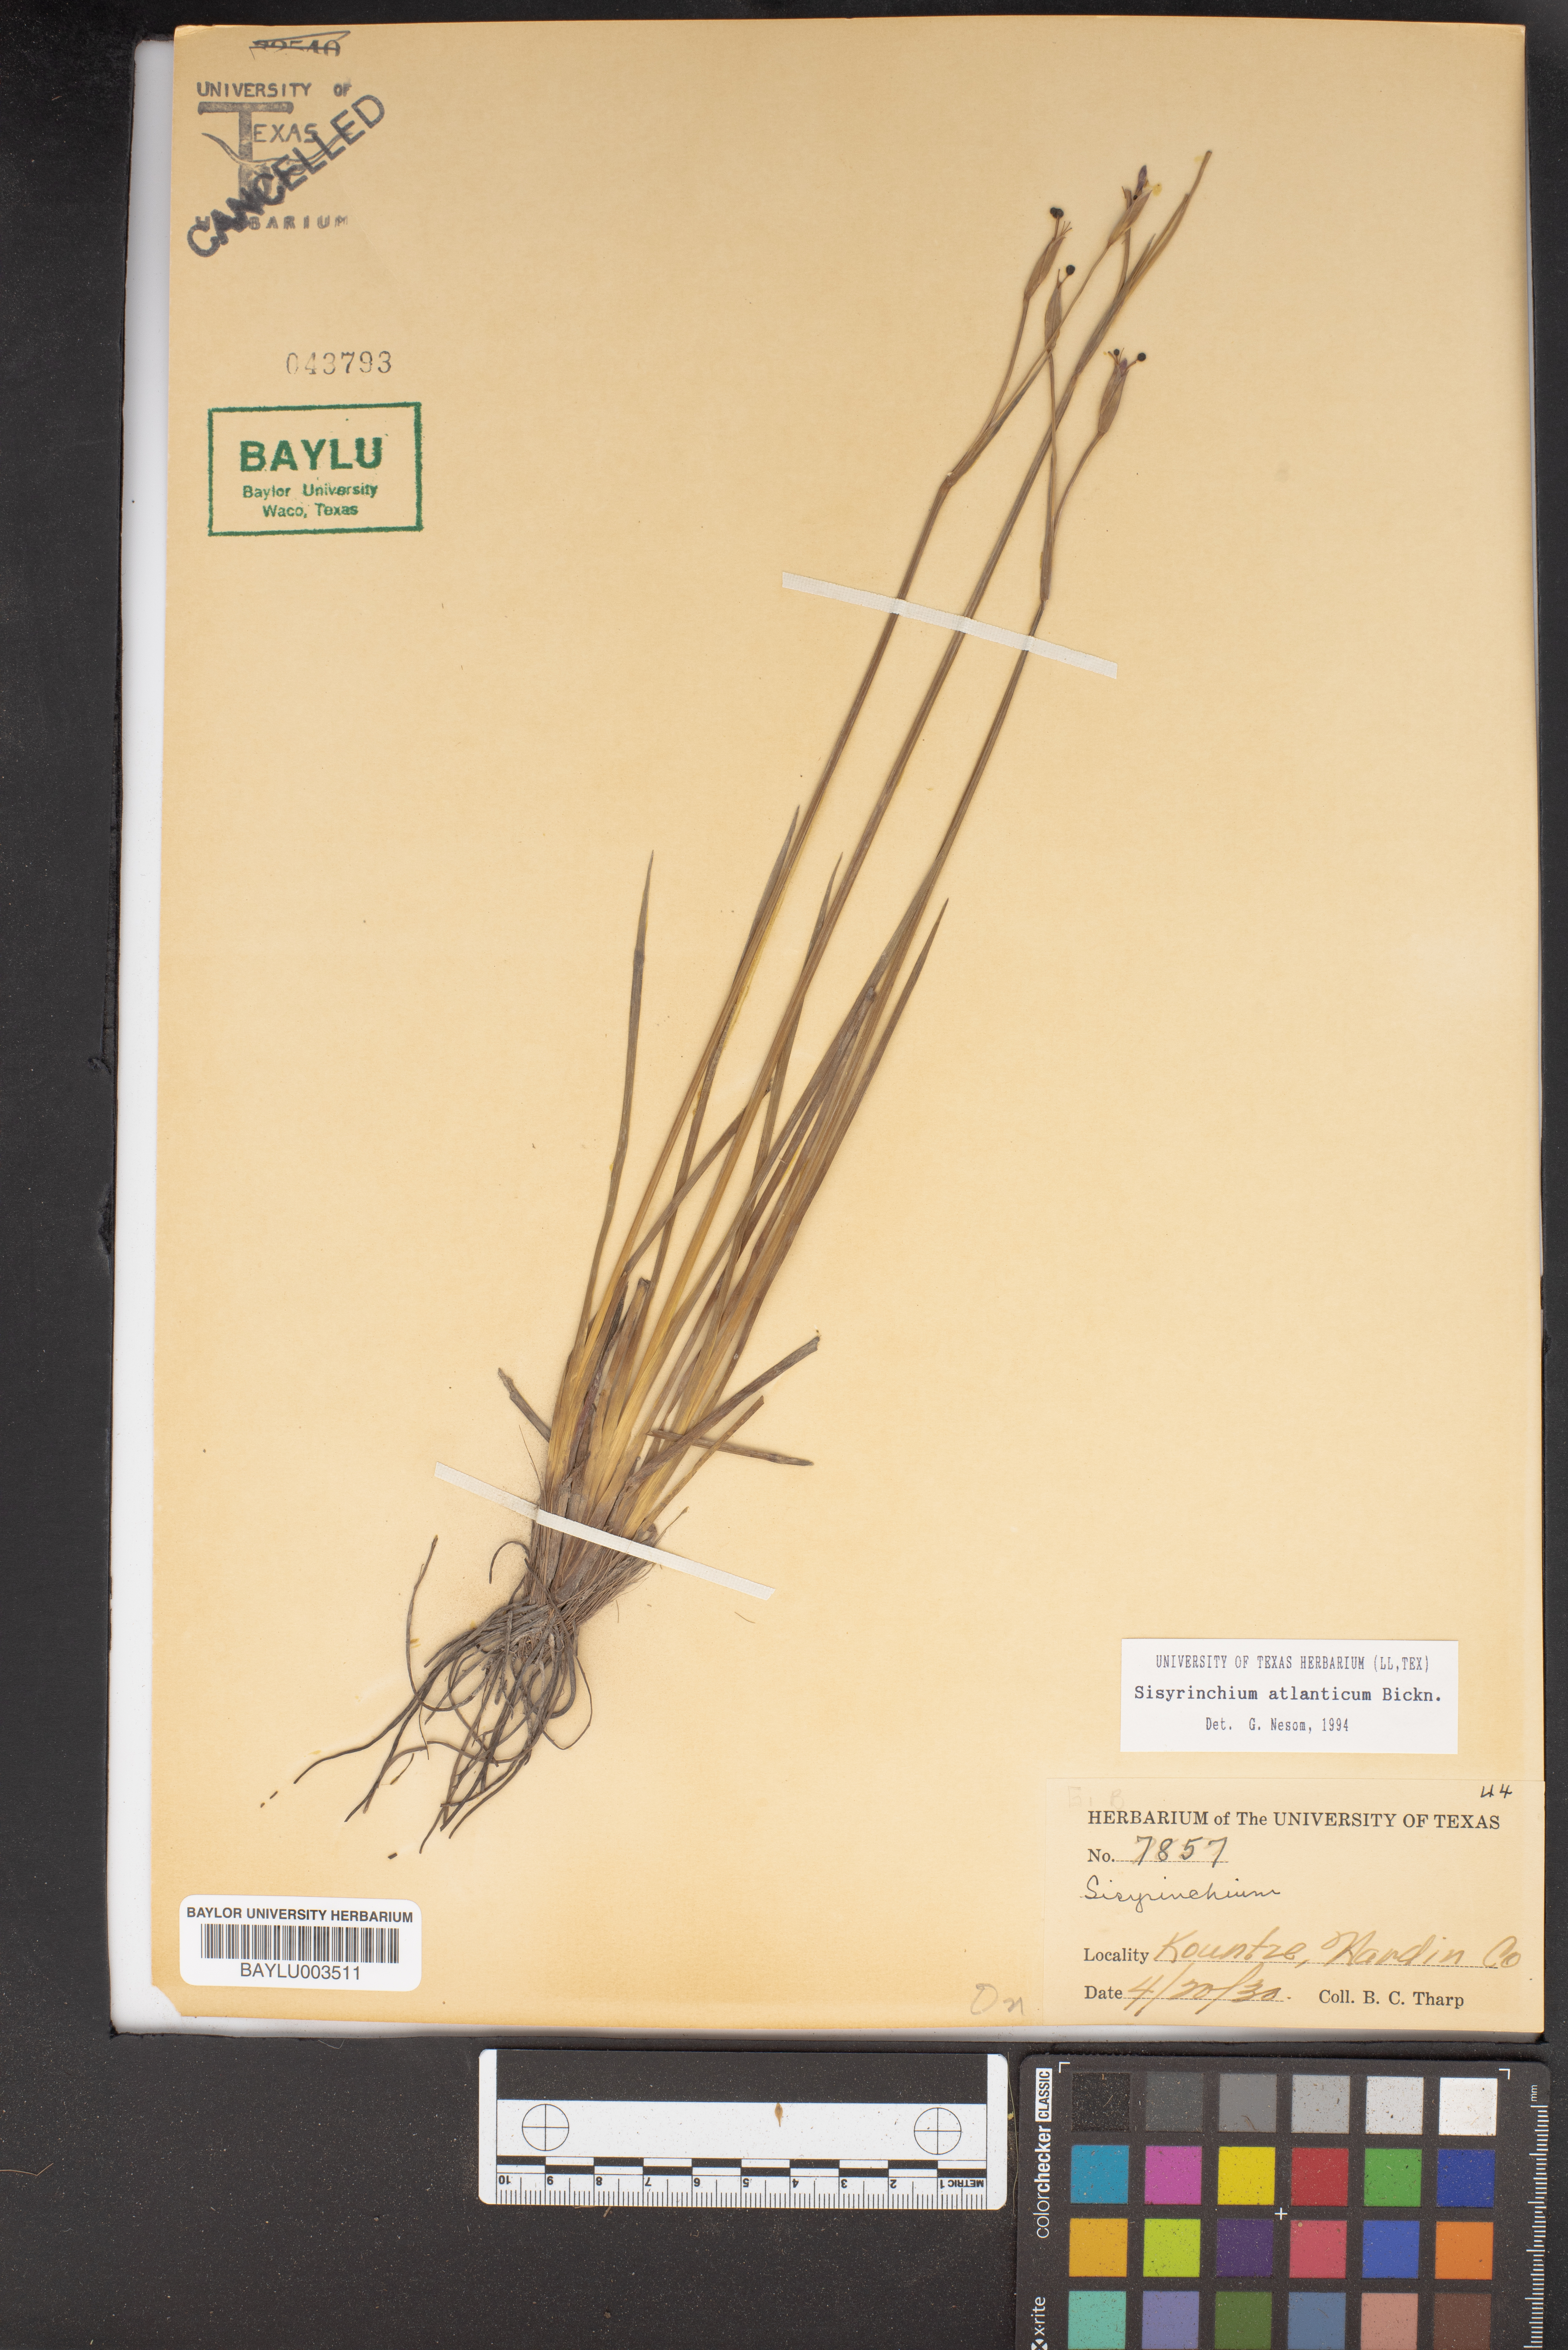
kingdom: Plantae
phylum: Tracheophyta
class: Liliopsida
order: Asparagales
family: Iridaceae
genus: Sisyrinchium
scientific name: Sisyrinchium atlanticum
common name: Eastern blue-eyed-grass
